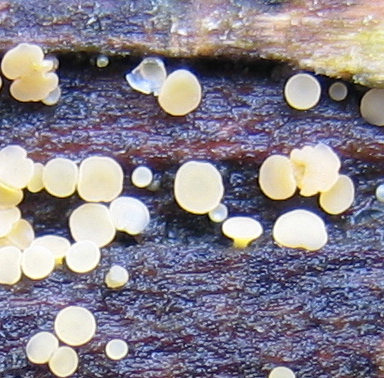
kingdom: Fungi
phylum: Ascomycota
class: Leotiomycetes
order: Helotiales
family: Helotiaceae
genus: Bisporella
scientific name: Bisporella
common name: snitskive
